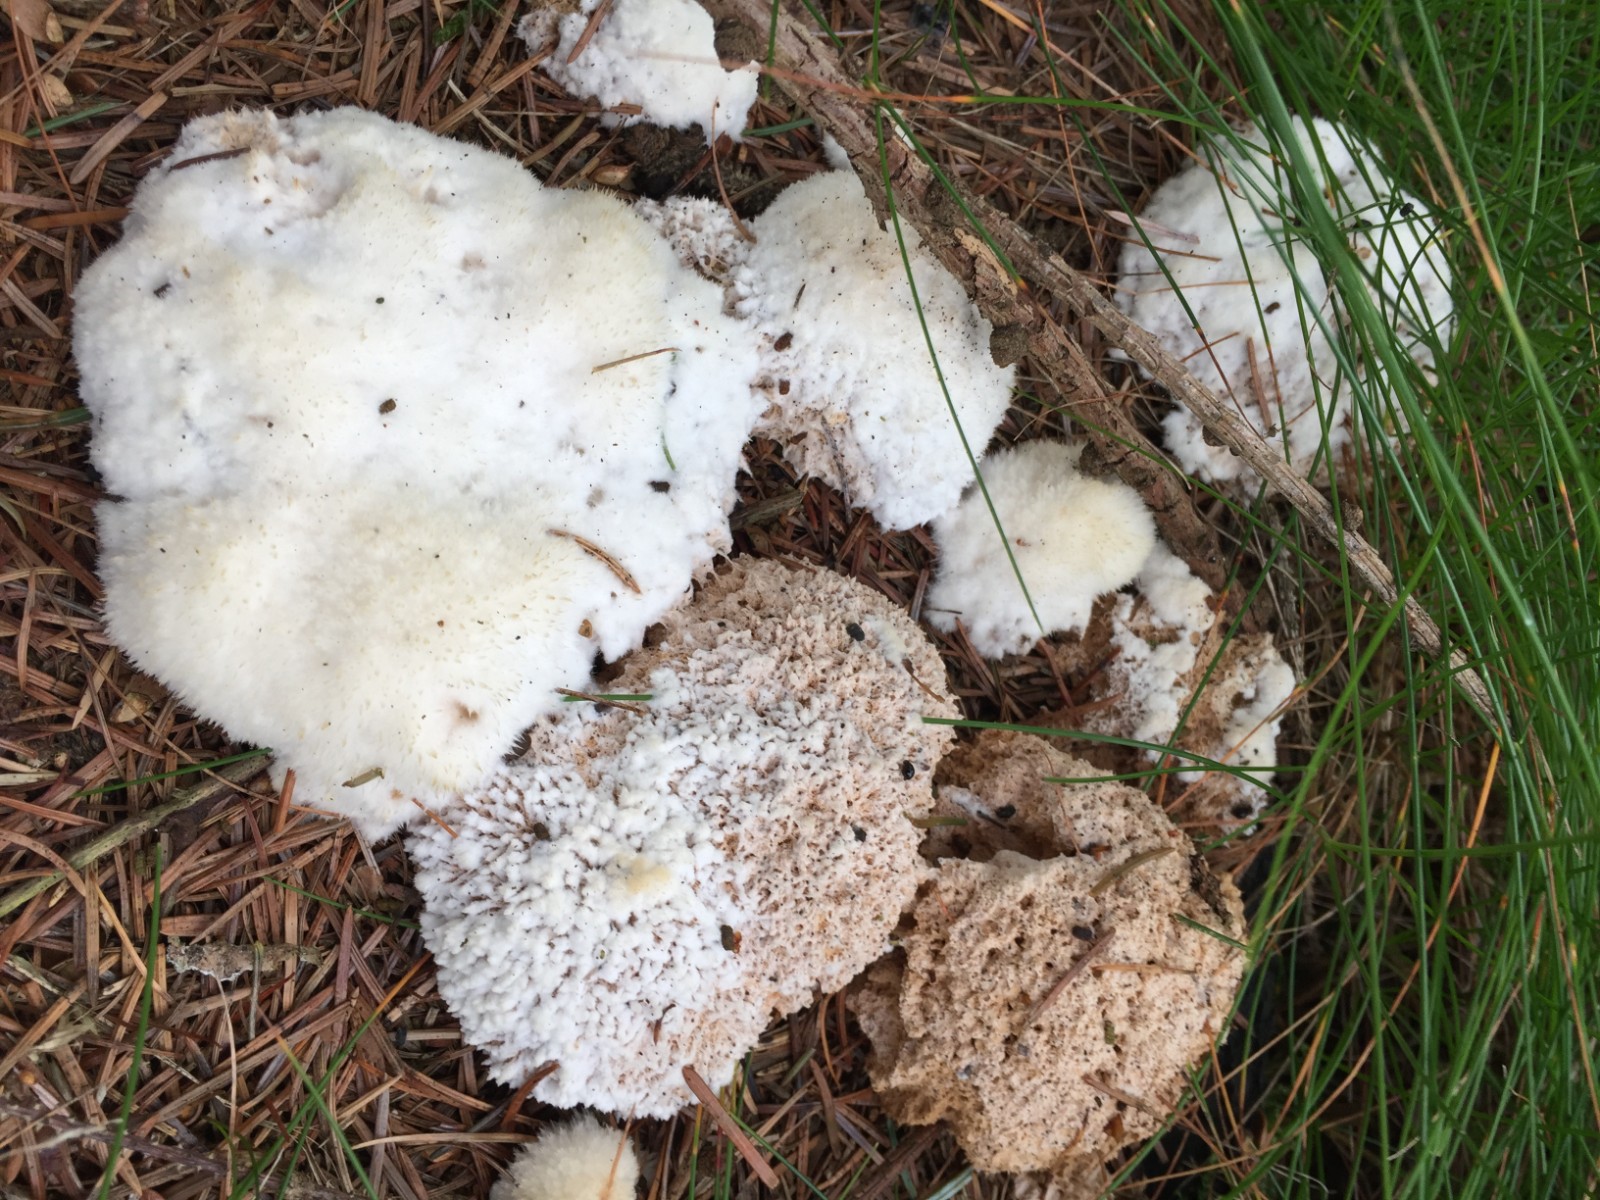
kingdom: Fungi
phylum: Basidiomycota
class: Agaricomycetes
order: Polyporales
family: Dacryobolaceae
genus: Postia
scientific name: Postia ptychogaster
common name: støvende kødporesvamp
